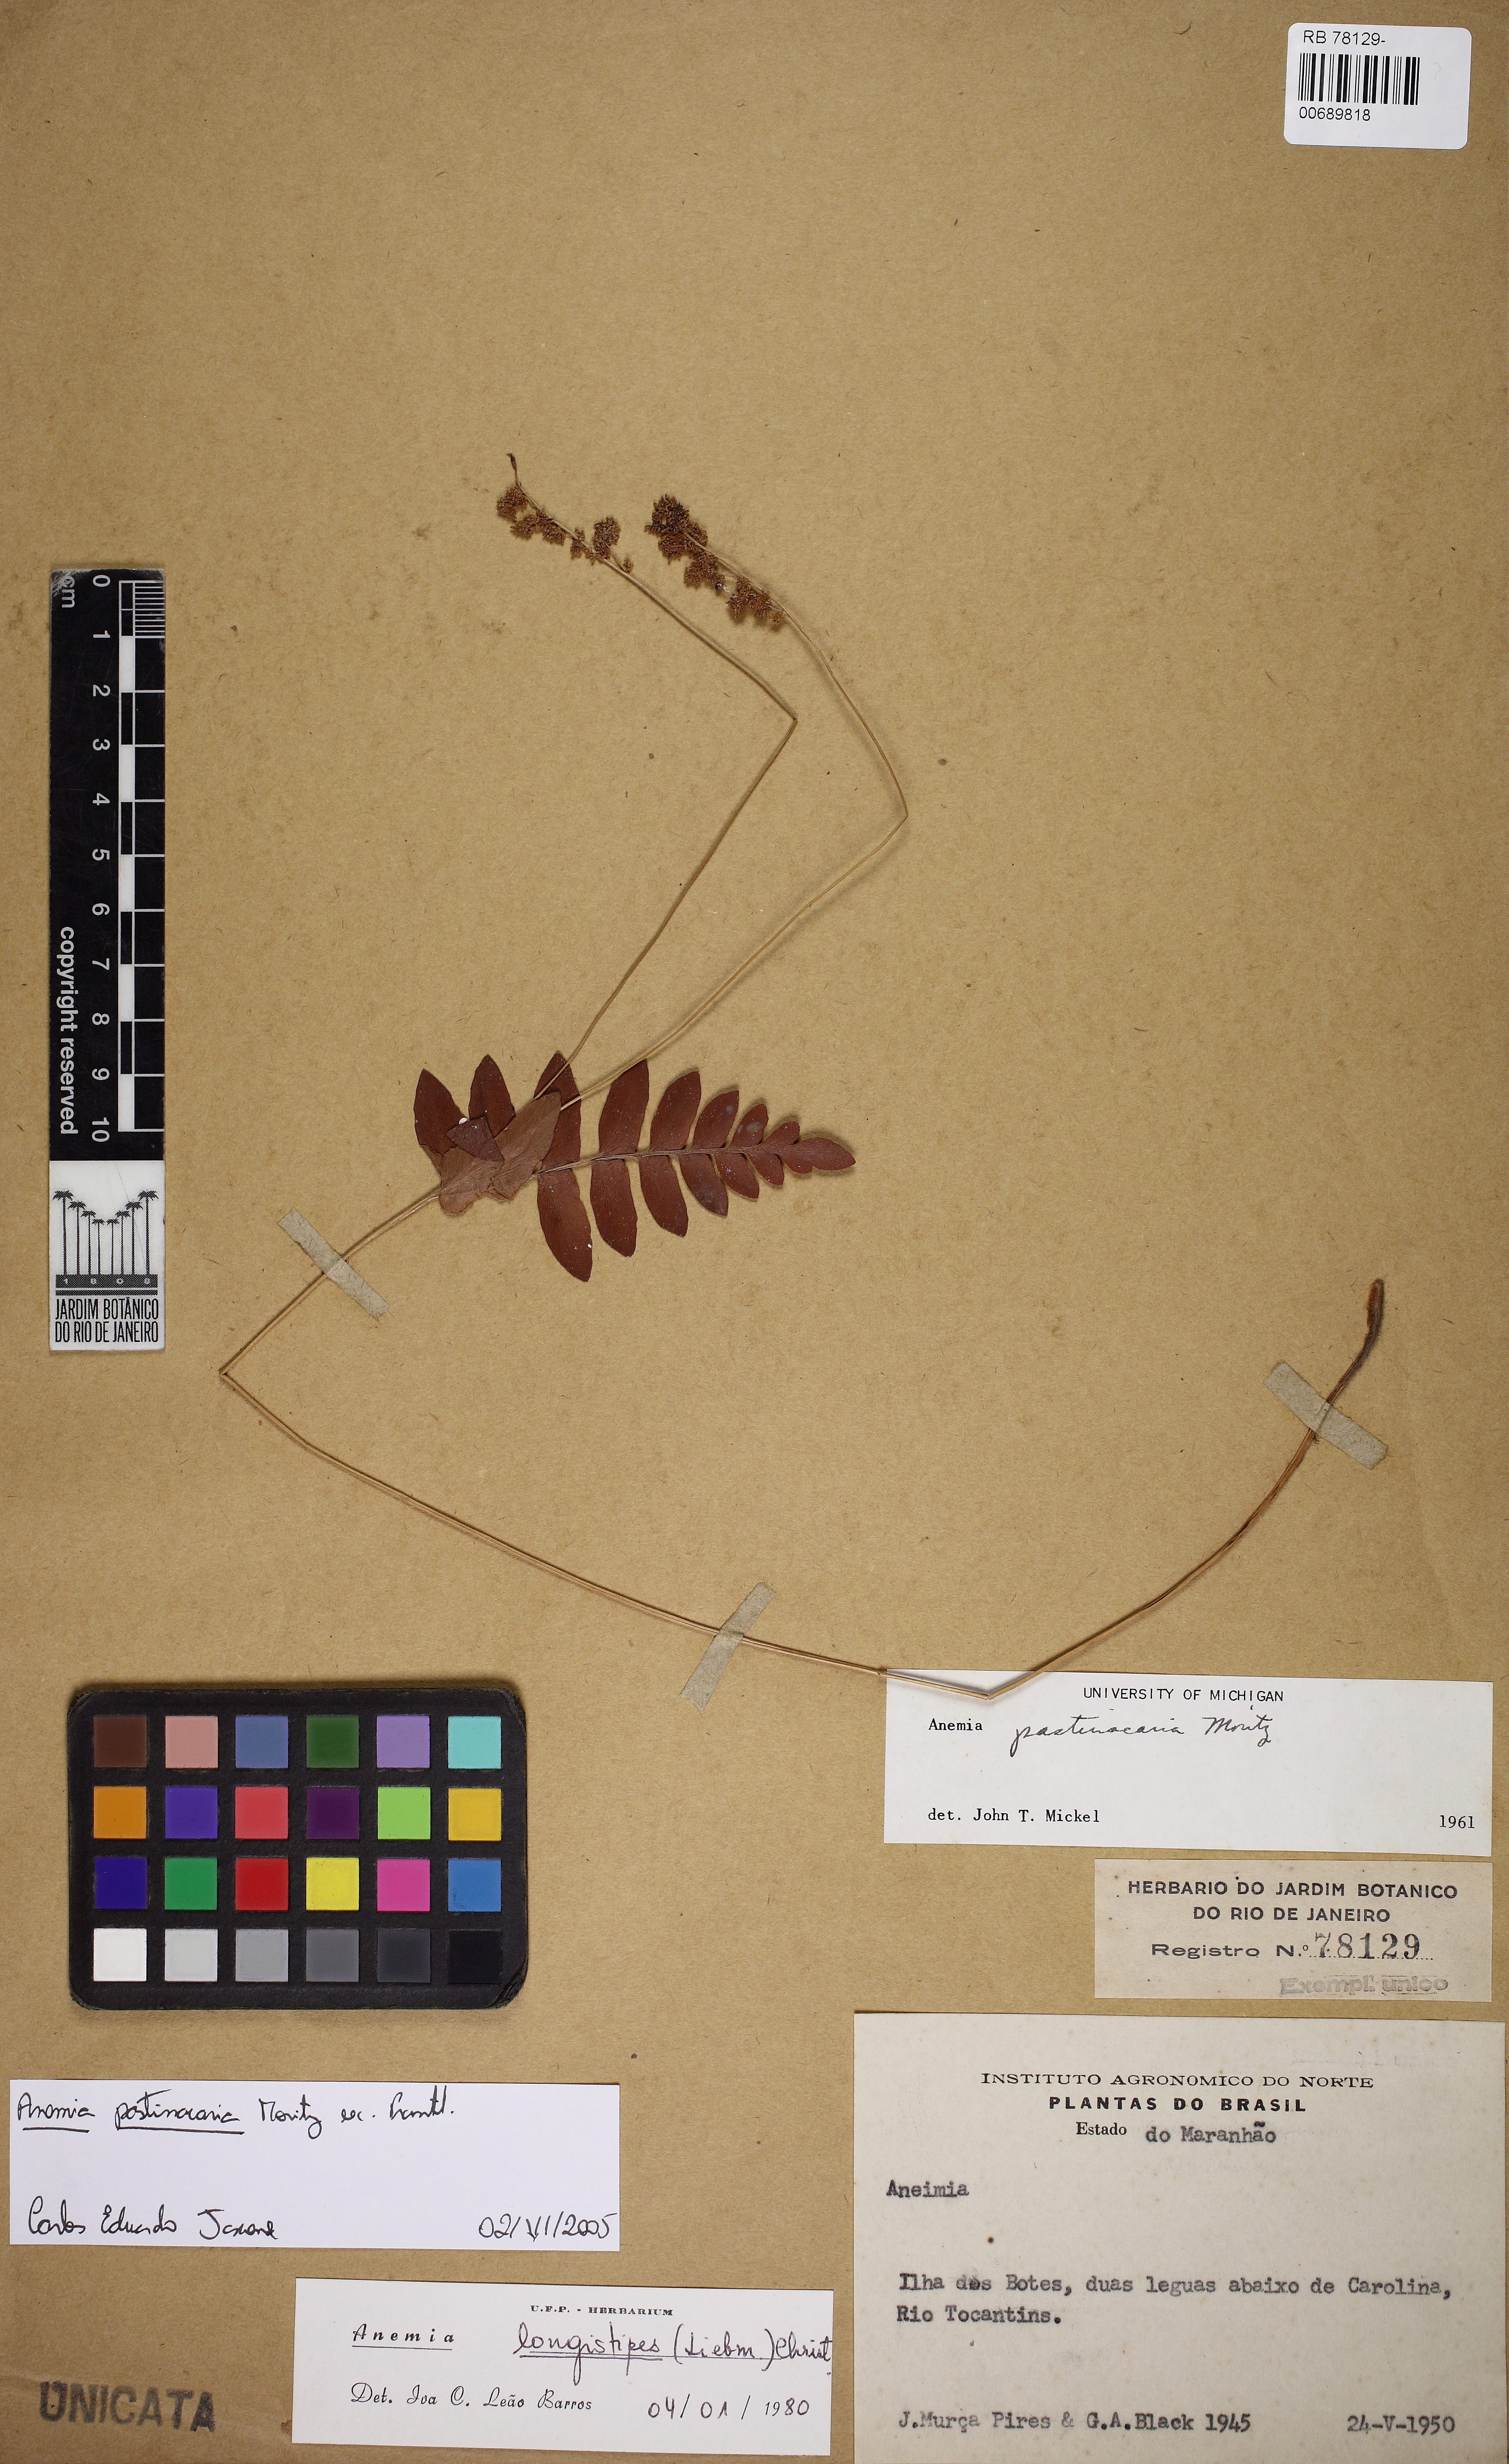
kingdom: Plantae
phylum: Tracheophyta
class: Polypodiopsida
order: Schizaeales
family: Anemiaceae
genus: Anemia
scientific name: Anemia hispida
